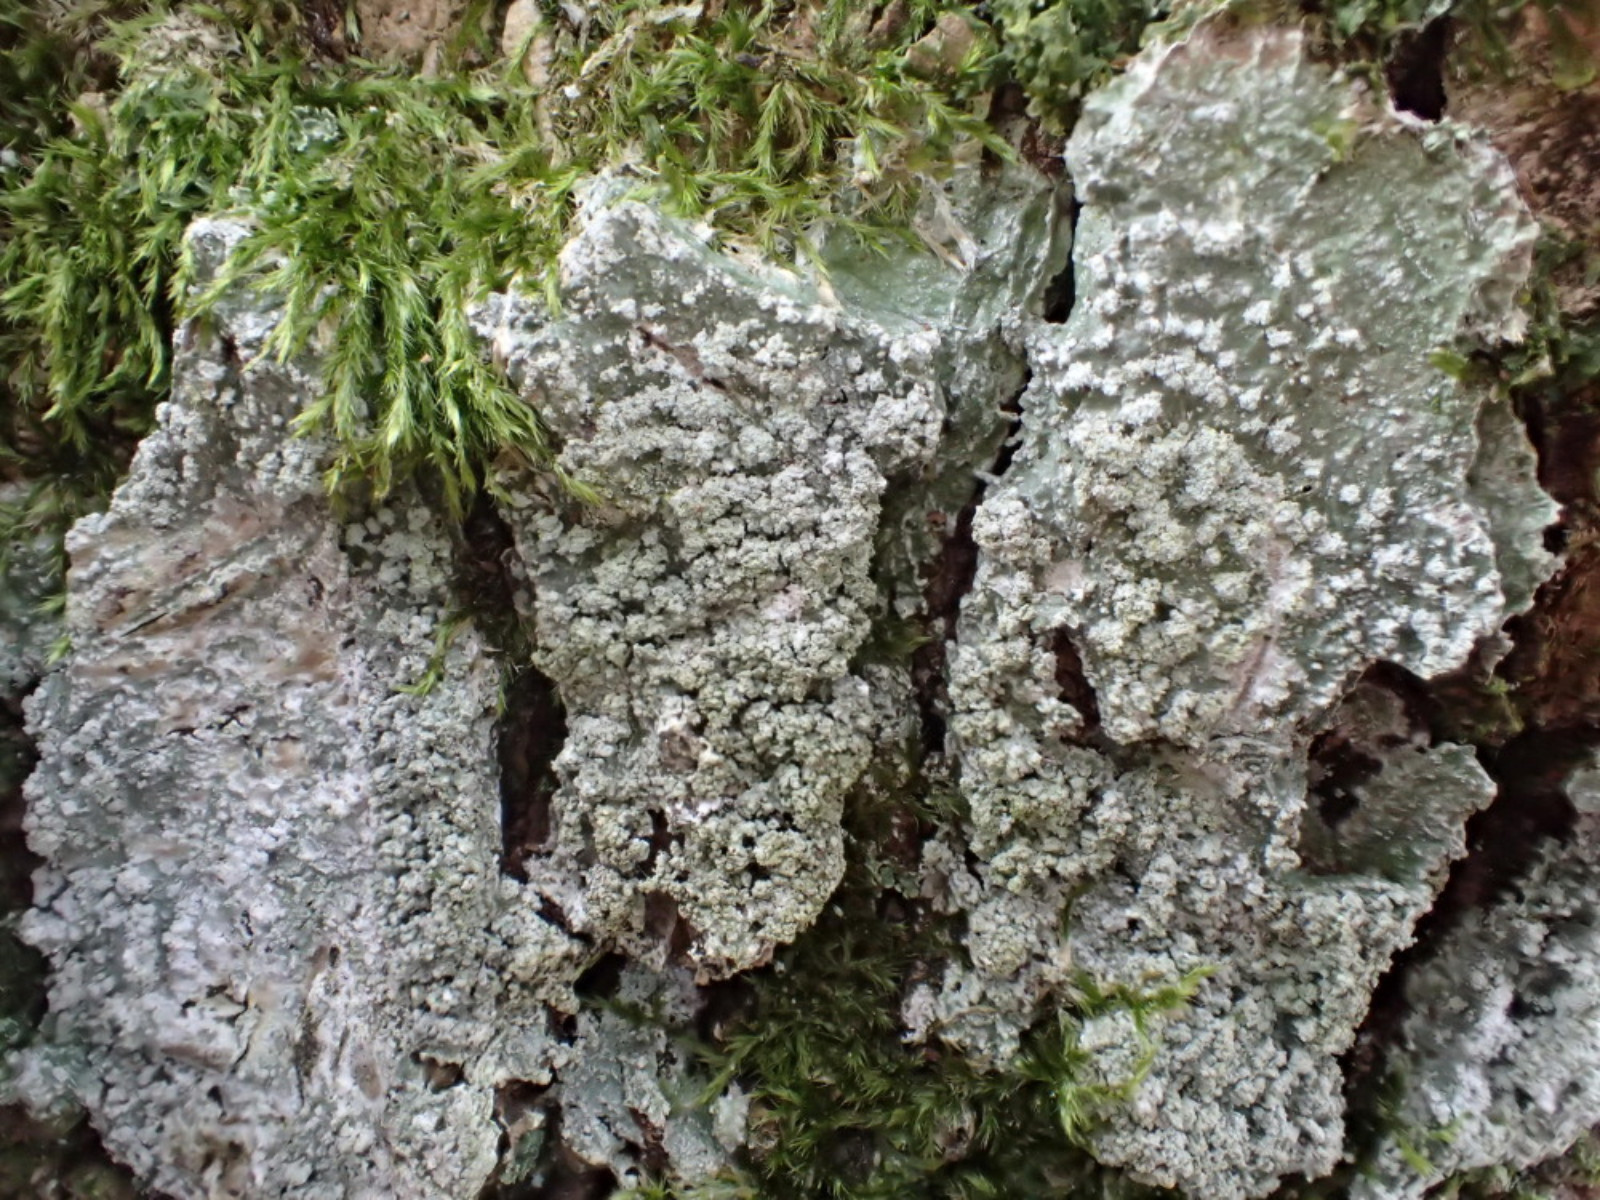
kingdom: Fungi
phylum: Ascomycota
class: Lecanoromycetes
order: Pertusariales
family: Pertusariaceae
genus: Lepra
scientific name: Lepra albescens
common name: hvidmelet prikvortelav
